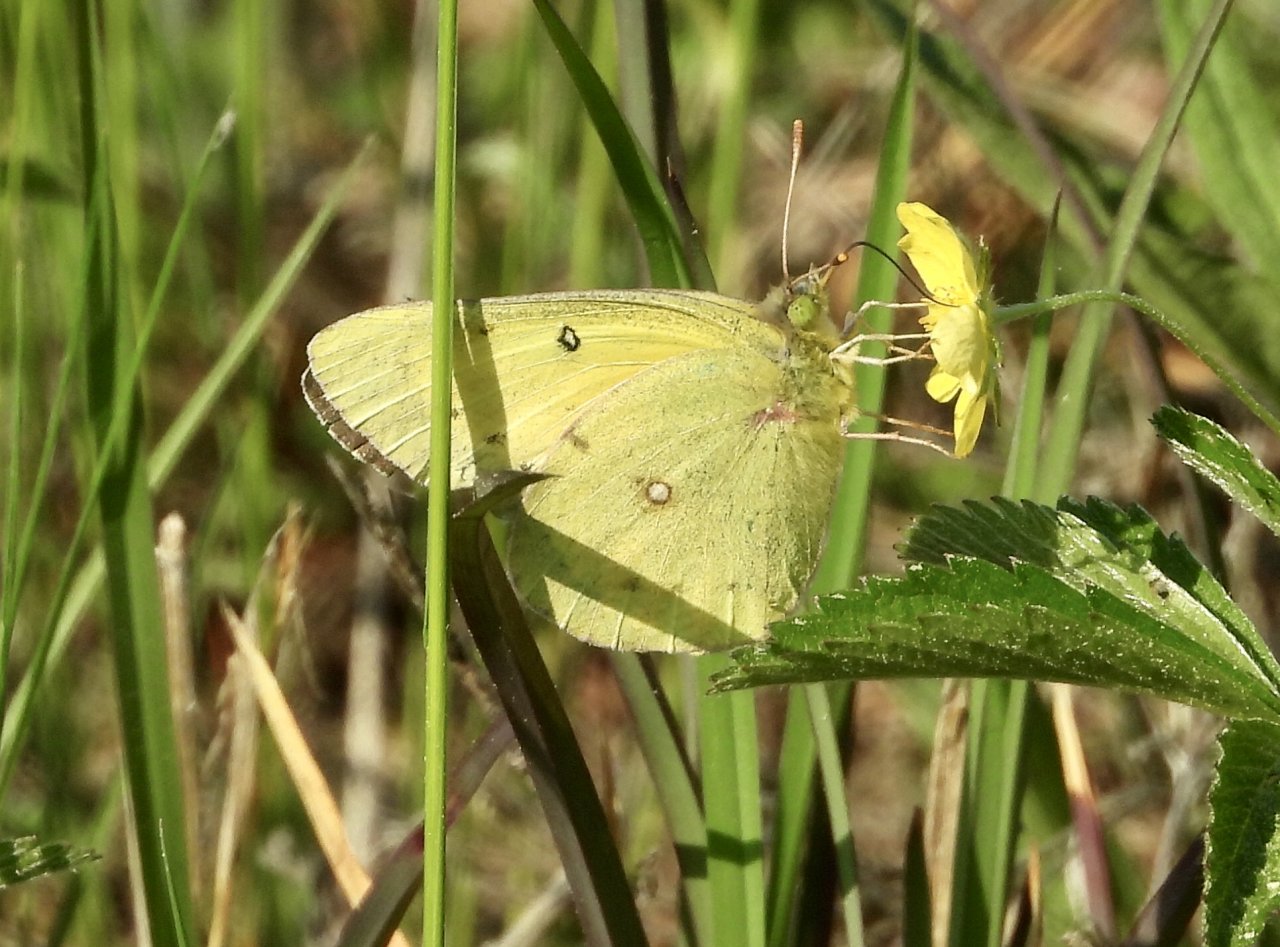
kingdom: Animalia
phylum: Arthropoda
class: Insecta
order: Lepidoptera
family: Pieridae
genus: Colias
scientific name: Colias philodice
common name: Clouded Sulphur
